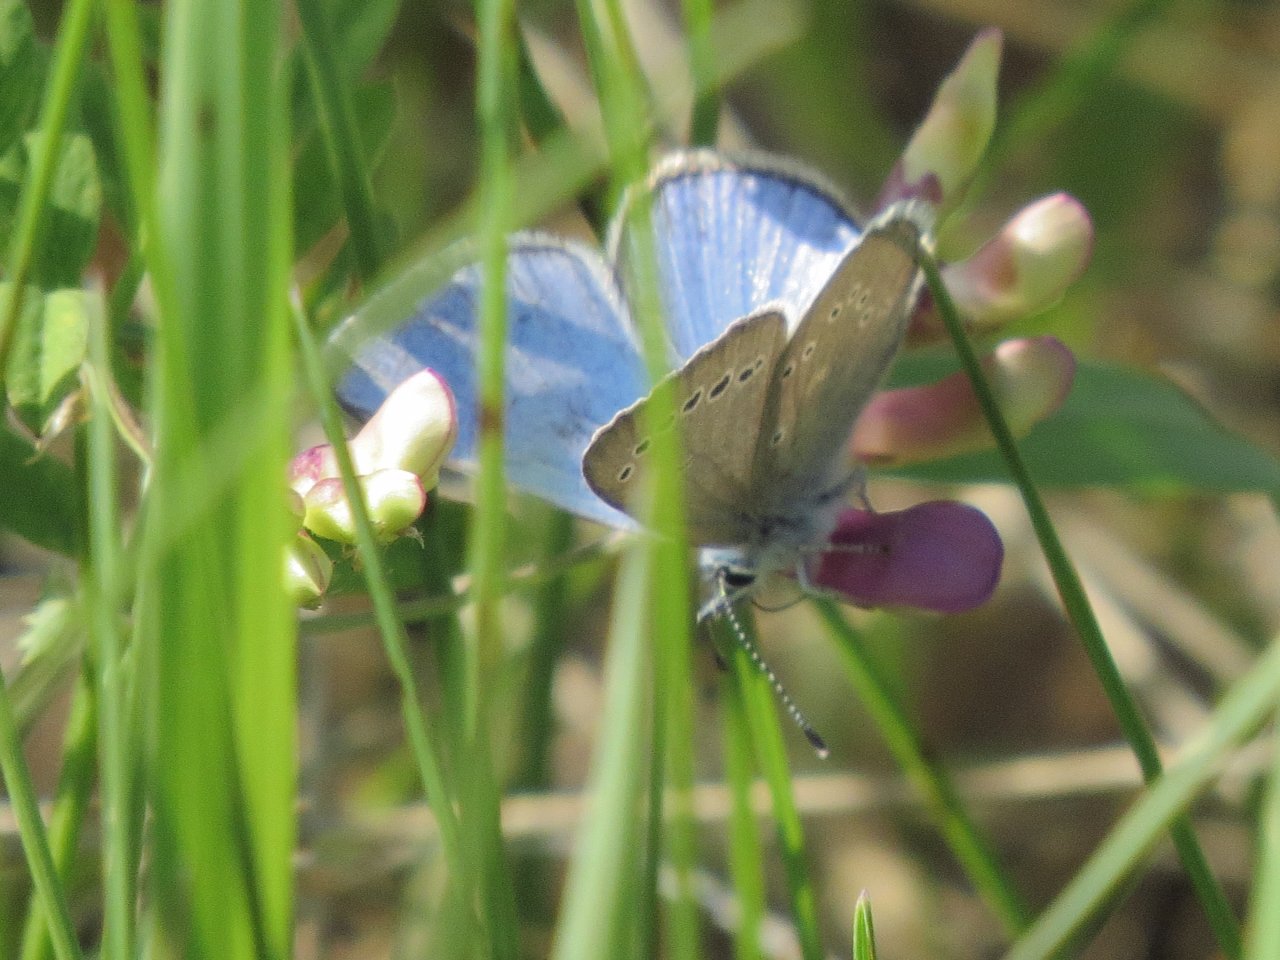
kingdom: Animalia
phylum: Arthropoda
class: Insecta
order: Lepidoptera
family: Lycaenidae
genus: Glaucopsyche
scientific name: Glaucopsyche lygdamus
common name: Silvery Blue
